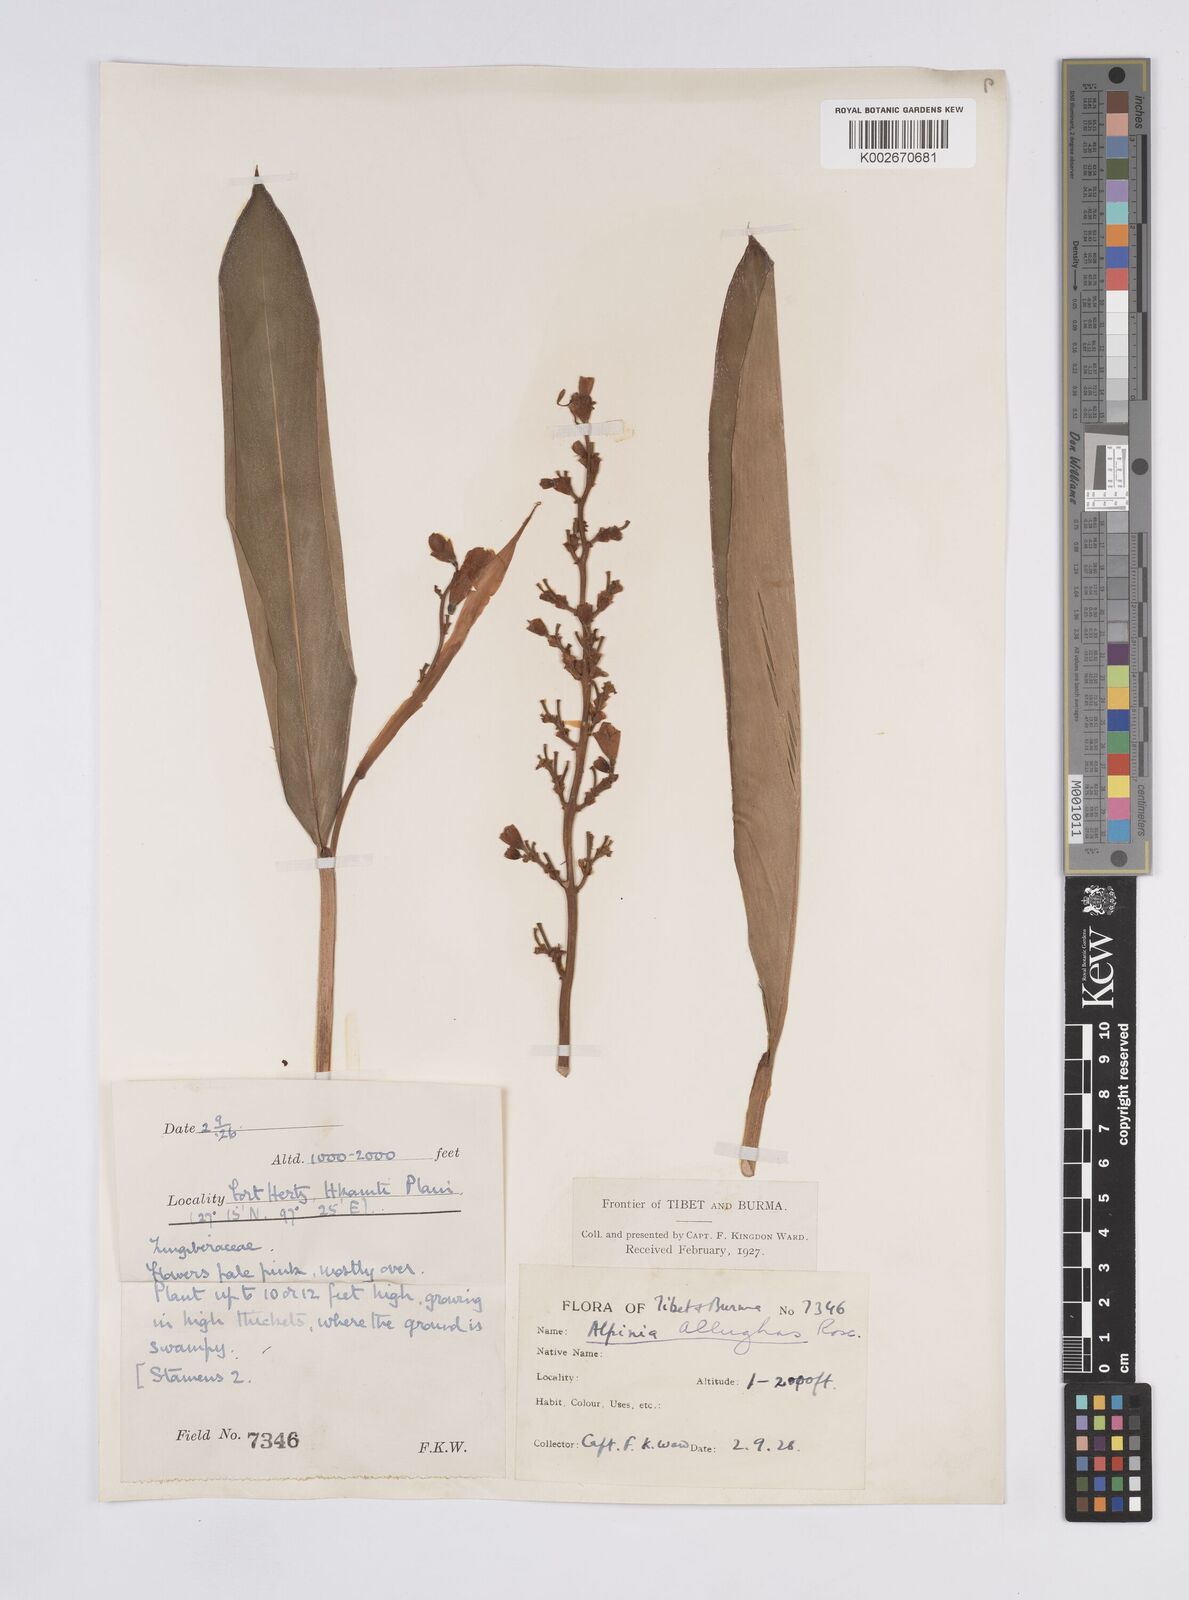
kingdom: Plantae
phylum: Tracheophyta
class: Liliopsida
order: Zingiberales
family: Zingiberaceae
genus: Alpinia
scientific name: Alpinia nigra
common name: Black fruited galanga
